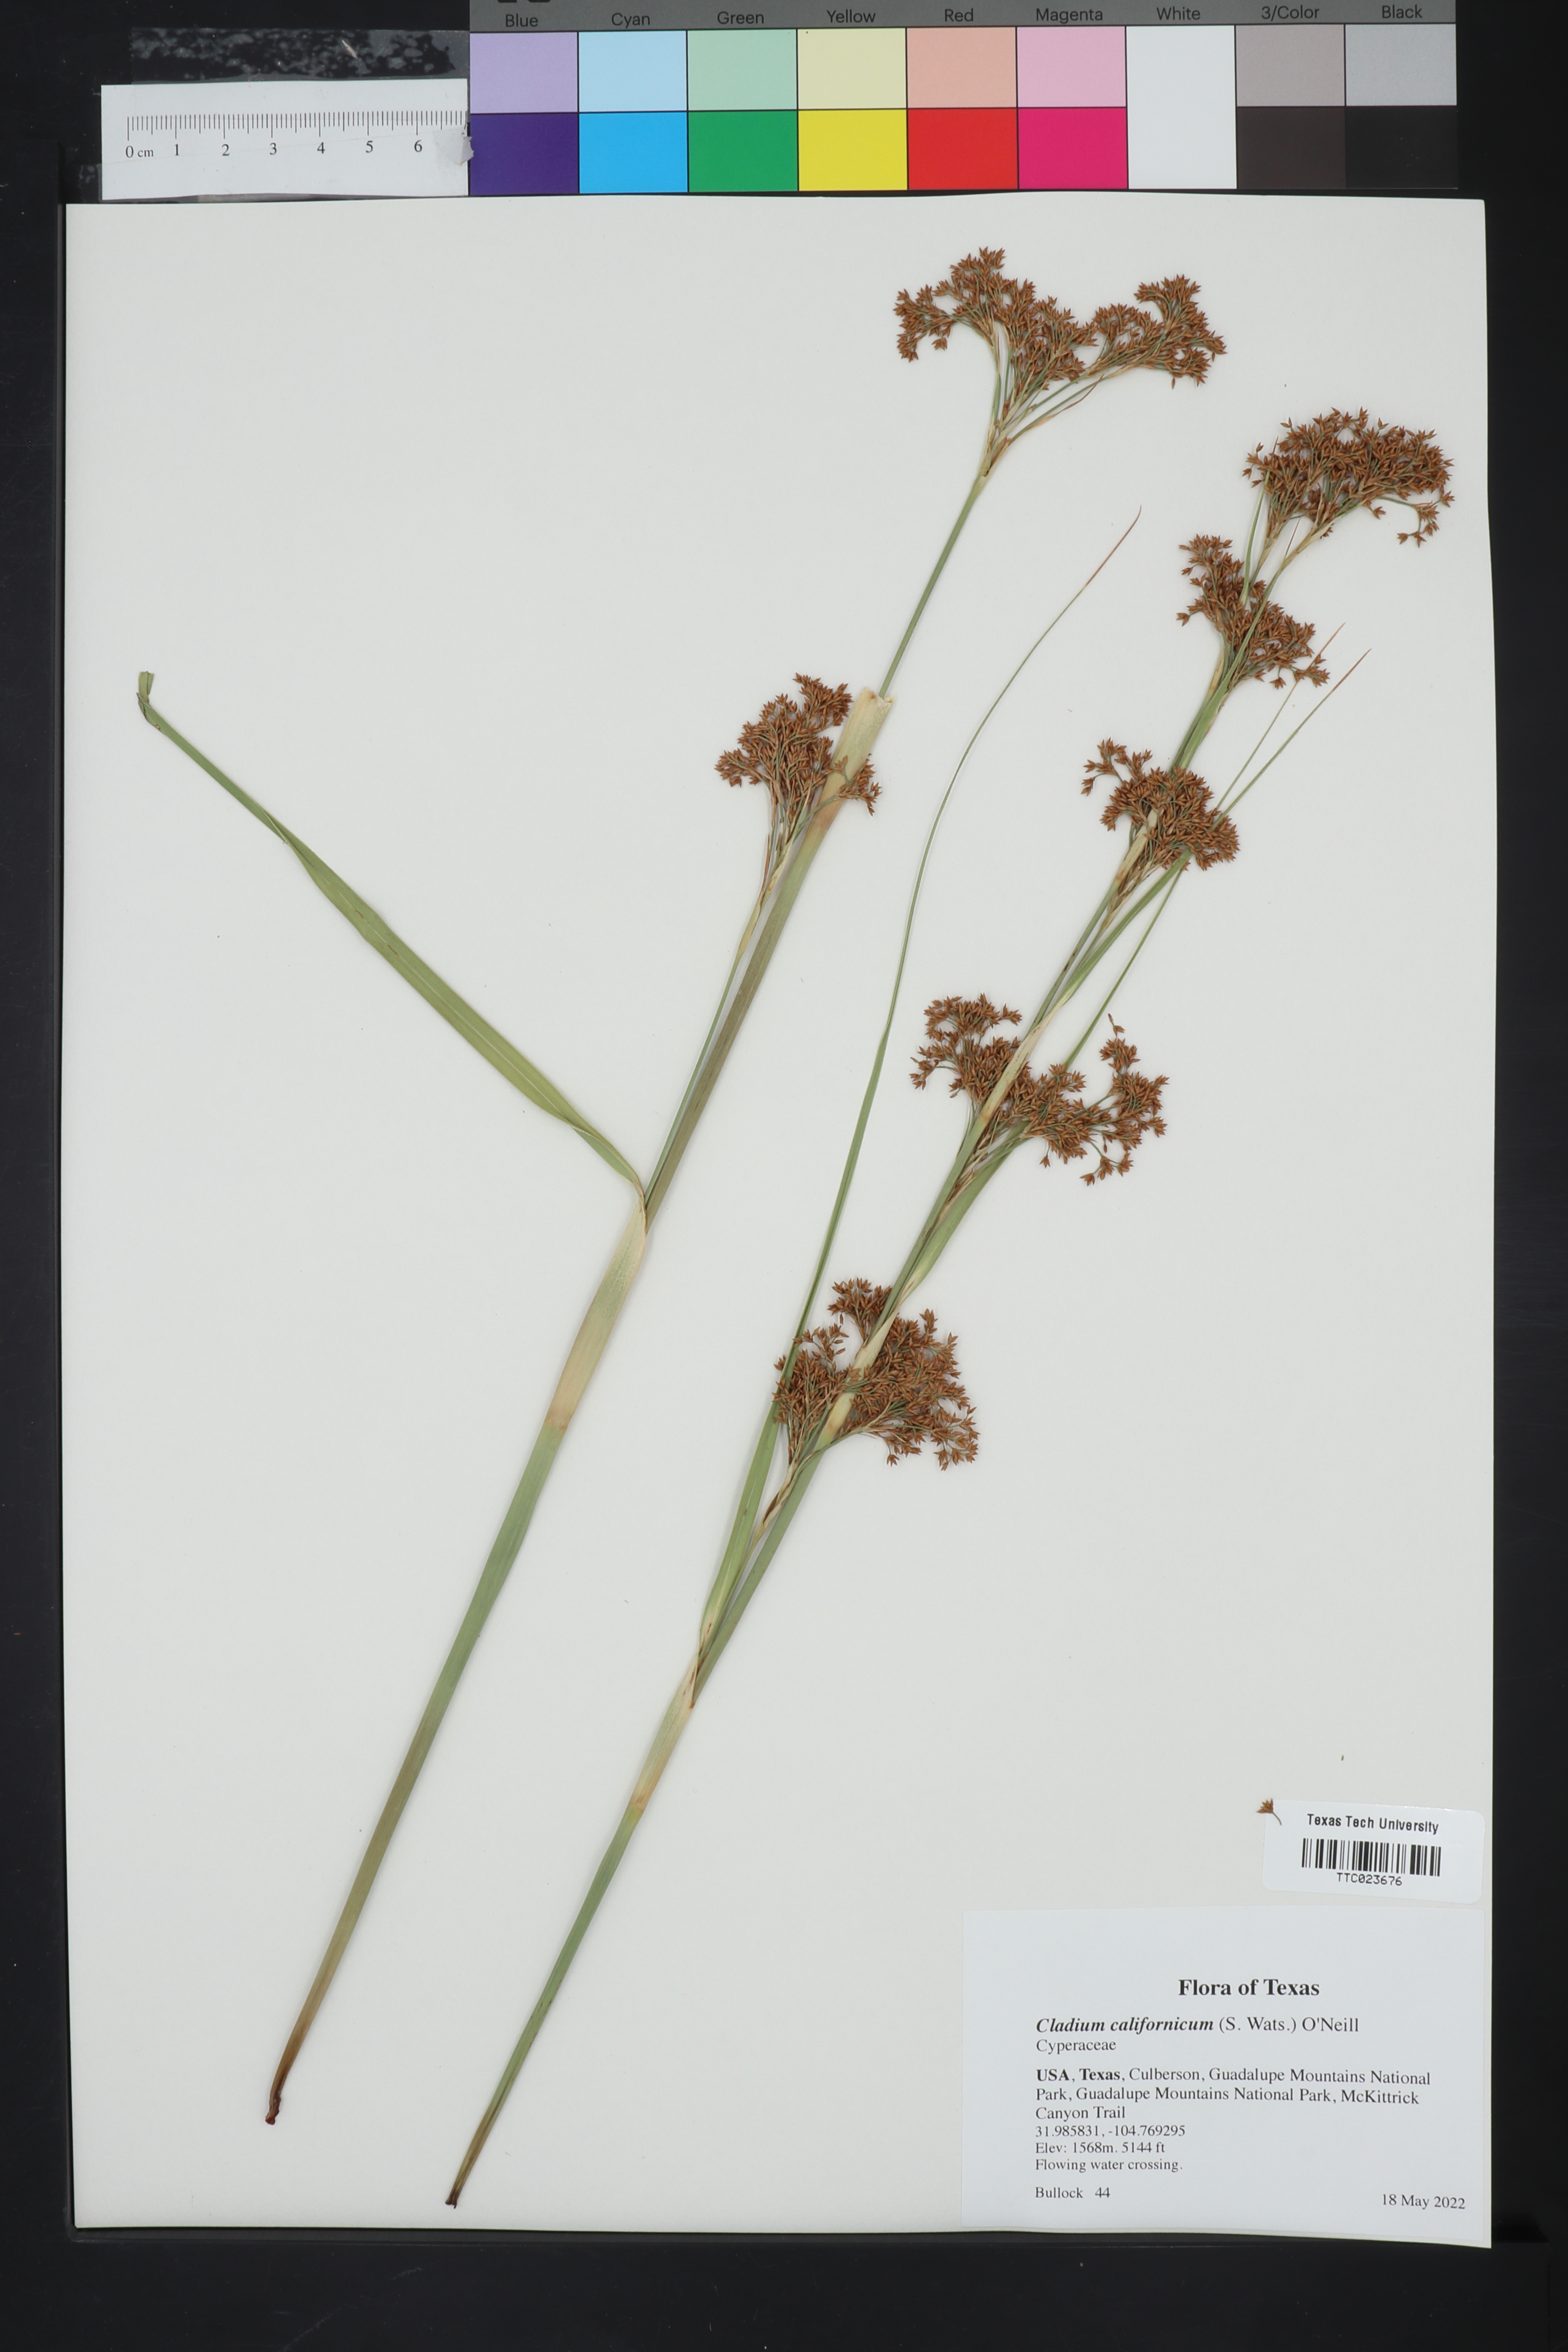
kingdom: Plantae
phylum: Tracheophyta
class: Liliopsida
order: Poales
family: Cyperaceae
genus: Cladium
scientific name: Cladium mariscus
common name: Great fen-sedge
